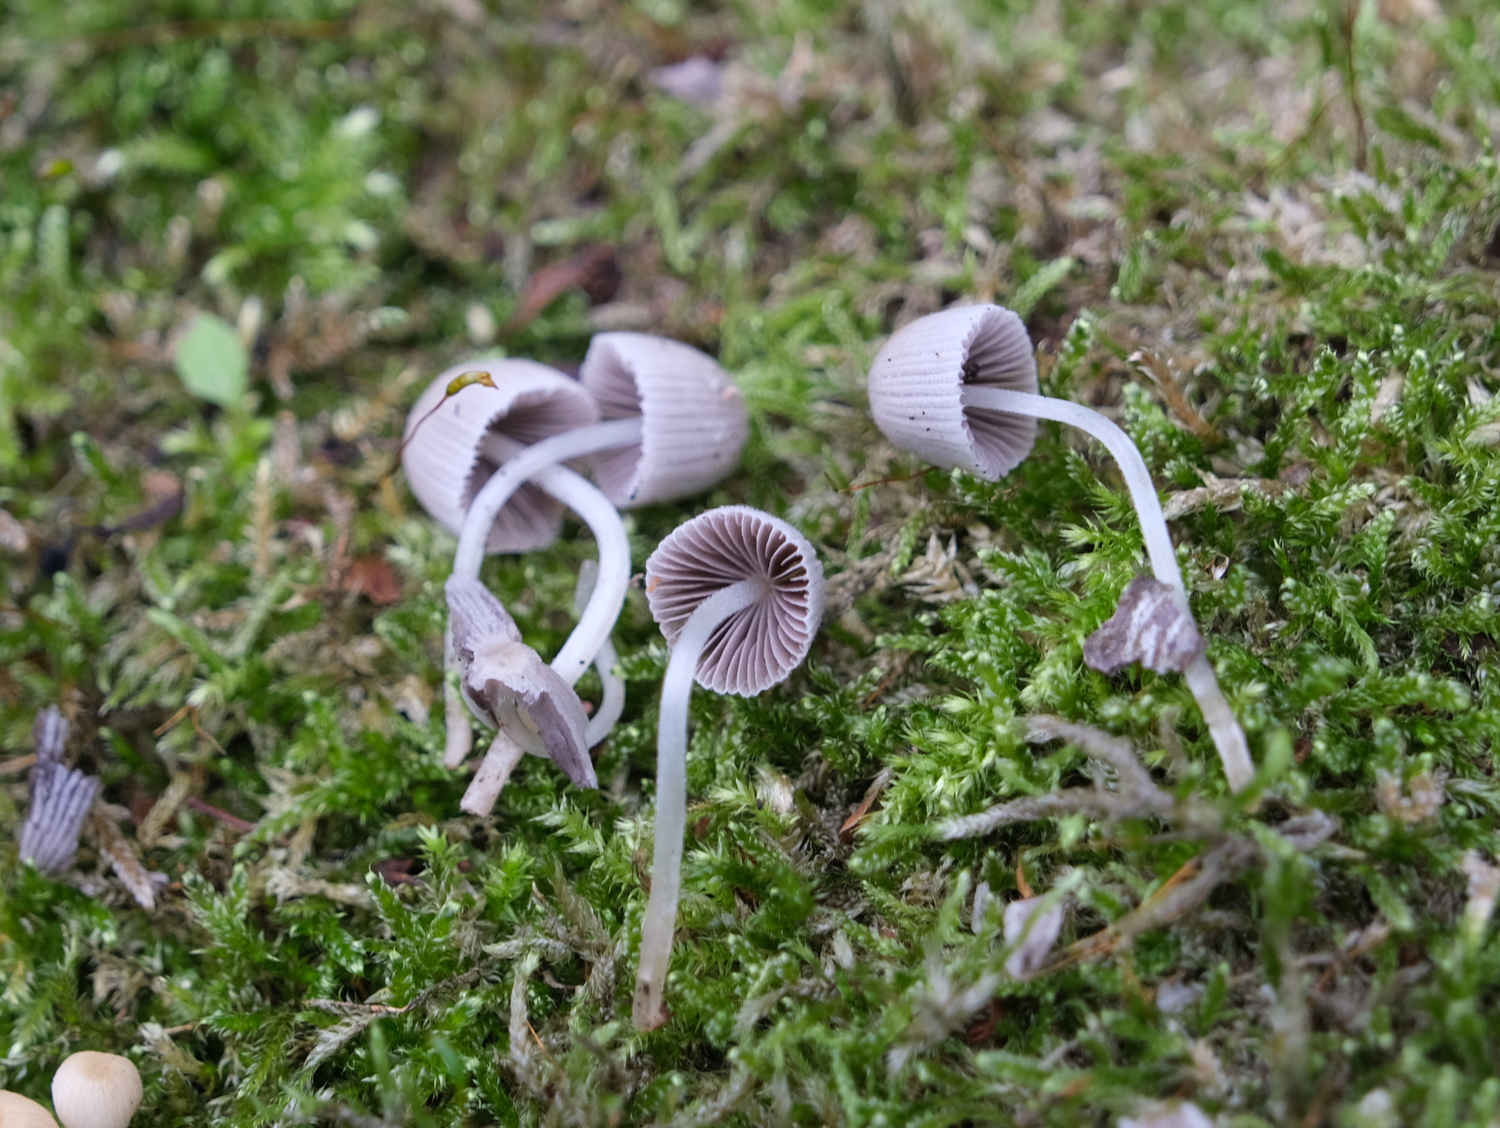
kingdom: Fungi
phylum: Basidiomycota
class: Agaricomycetes
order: Agaricales
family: Psathyrellaceae
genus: Coprinellus
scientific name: Coprinellus disseminatus
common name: bredsået blækhat
